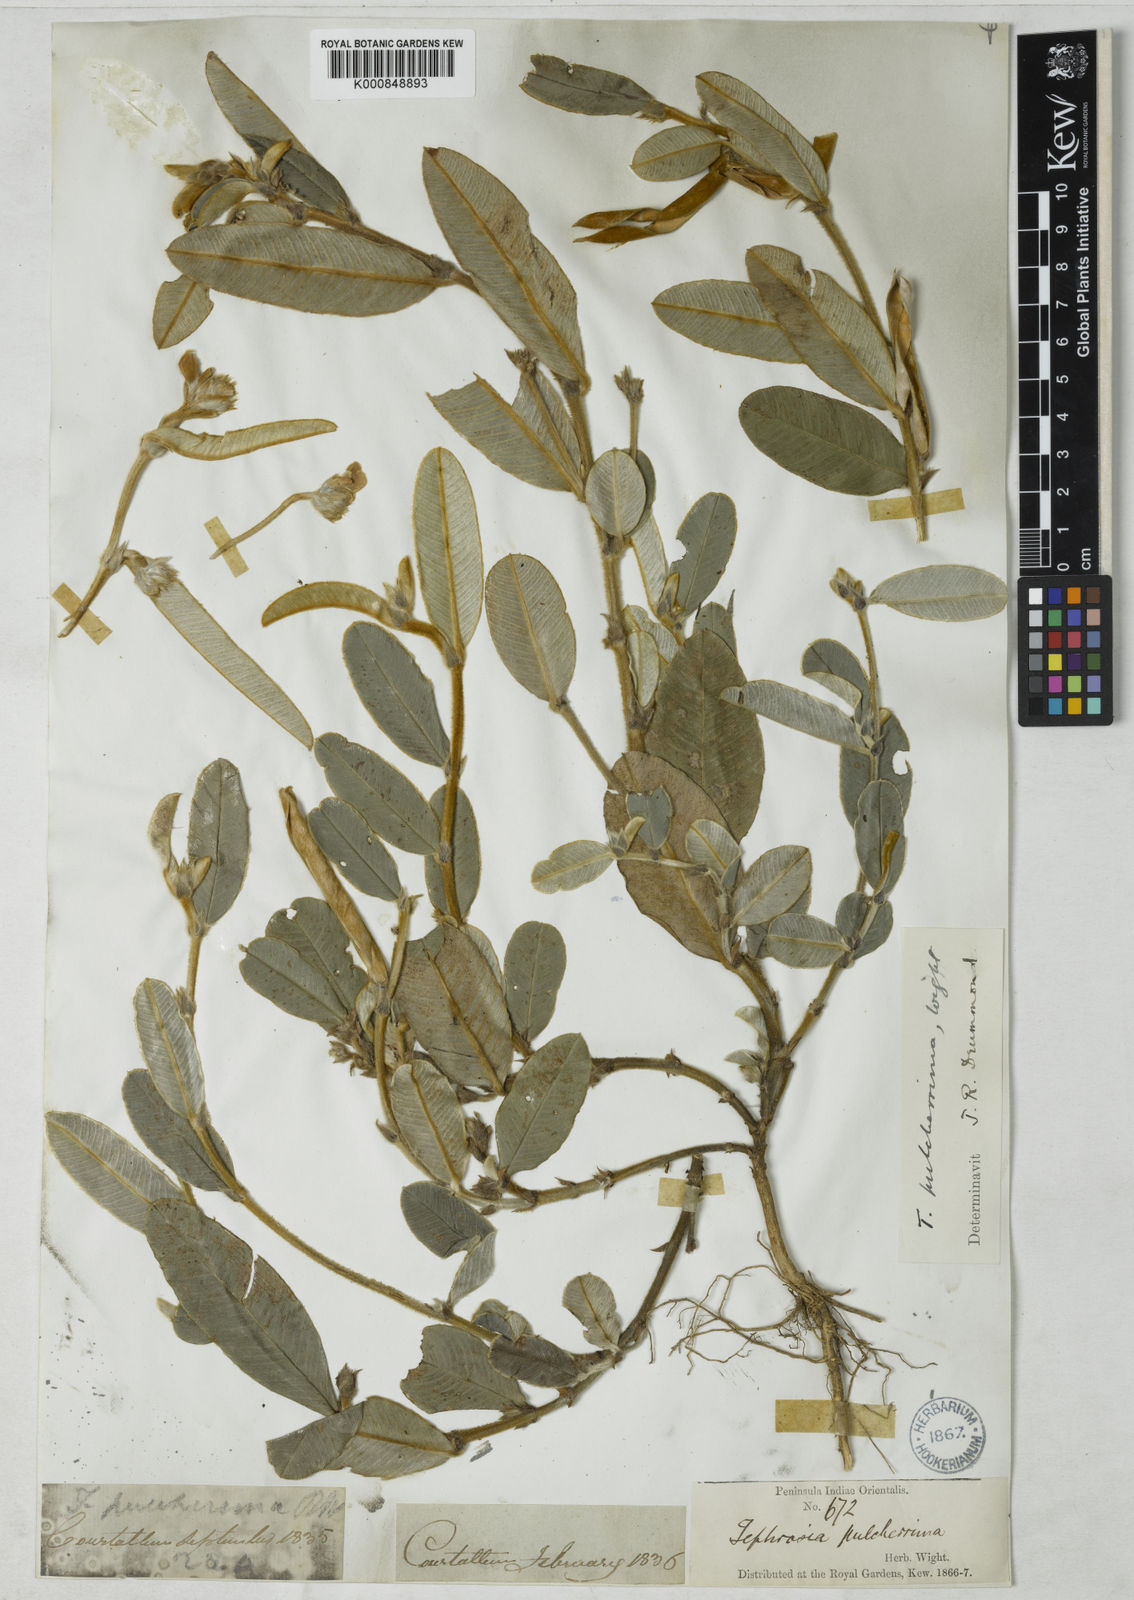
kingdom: Plantae
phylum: Tracheophyta
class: Magnoliopsida
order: Fabales
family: Fabaceae
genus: Tephrosia
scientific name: Tephrosia
